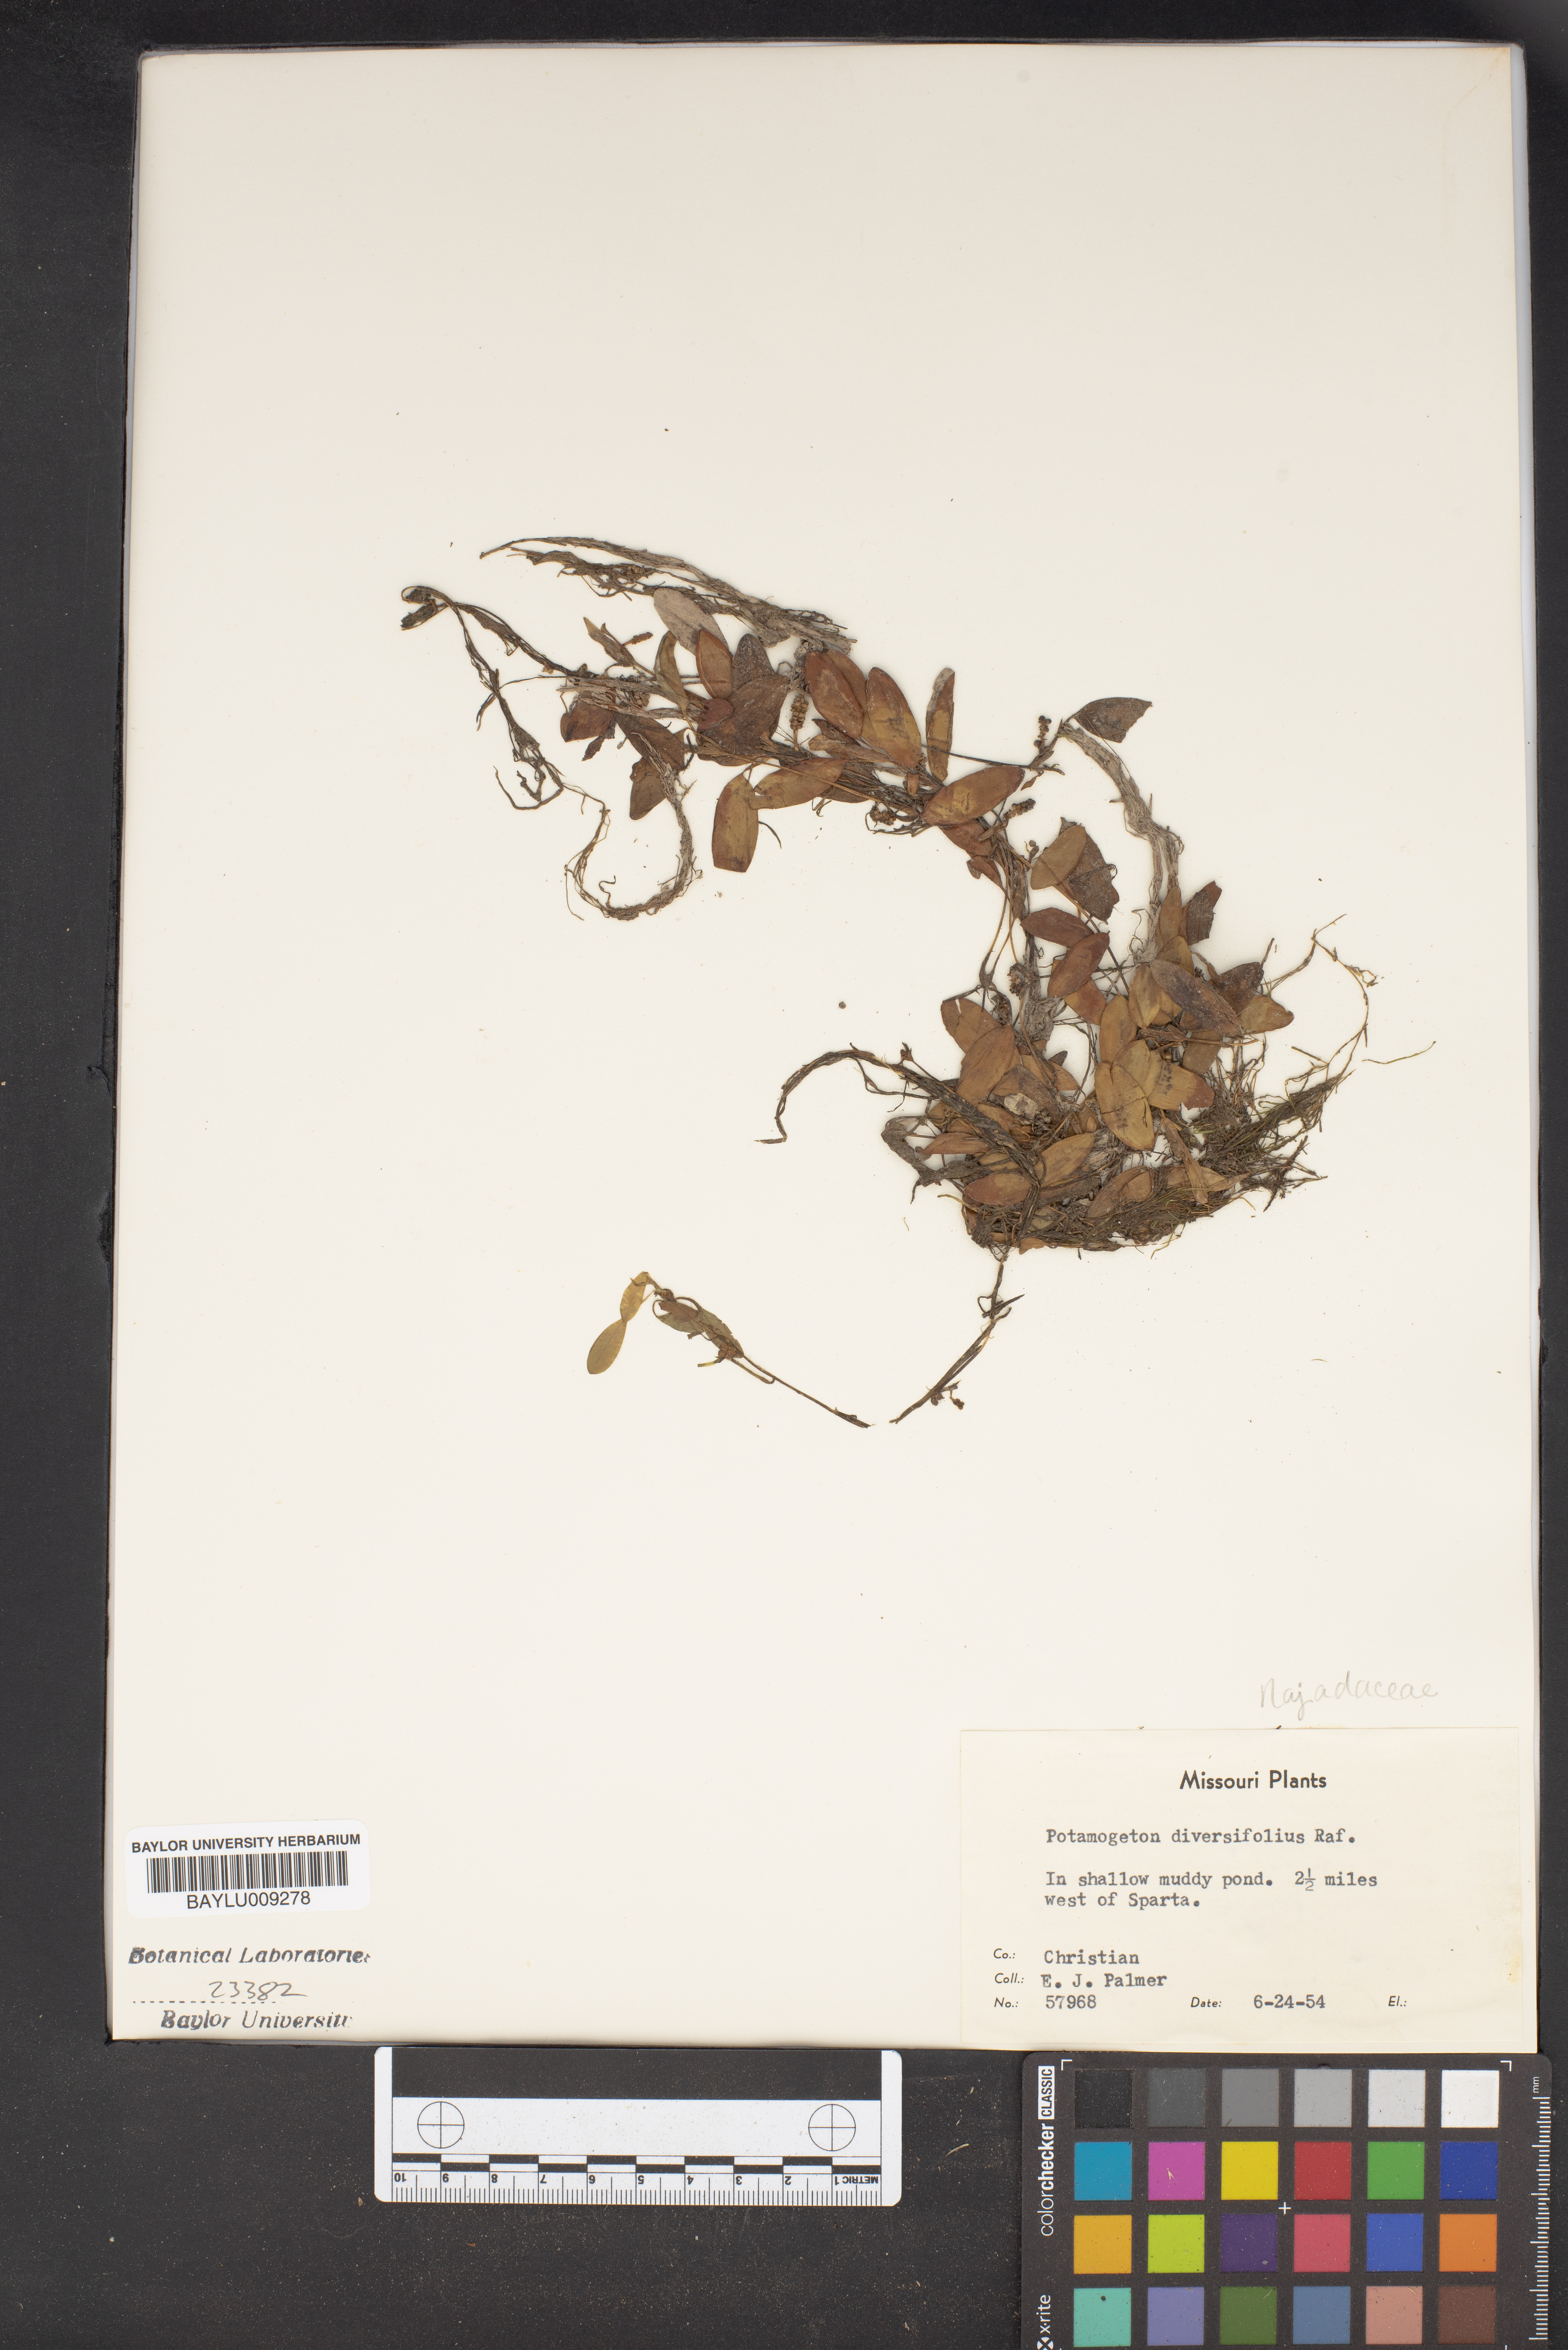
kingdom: Plantae
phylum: Tracheophyta
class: Liliopsida
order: Alismatales
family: Potamogetonaceae
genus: Potamogeton
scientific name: Potamogeton diversifolius
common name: Water-thread pondweed
